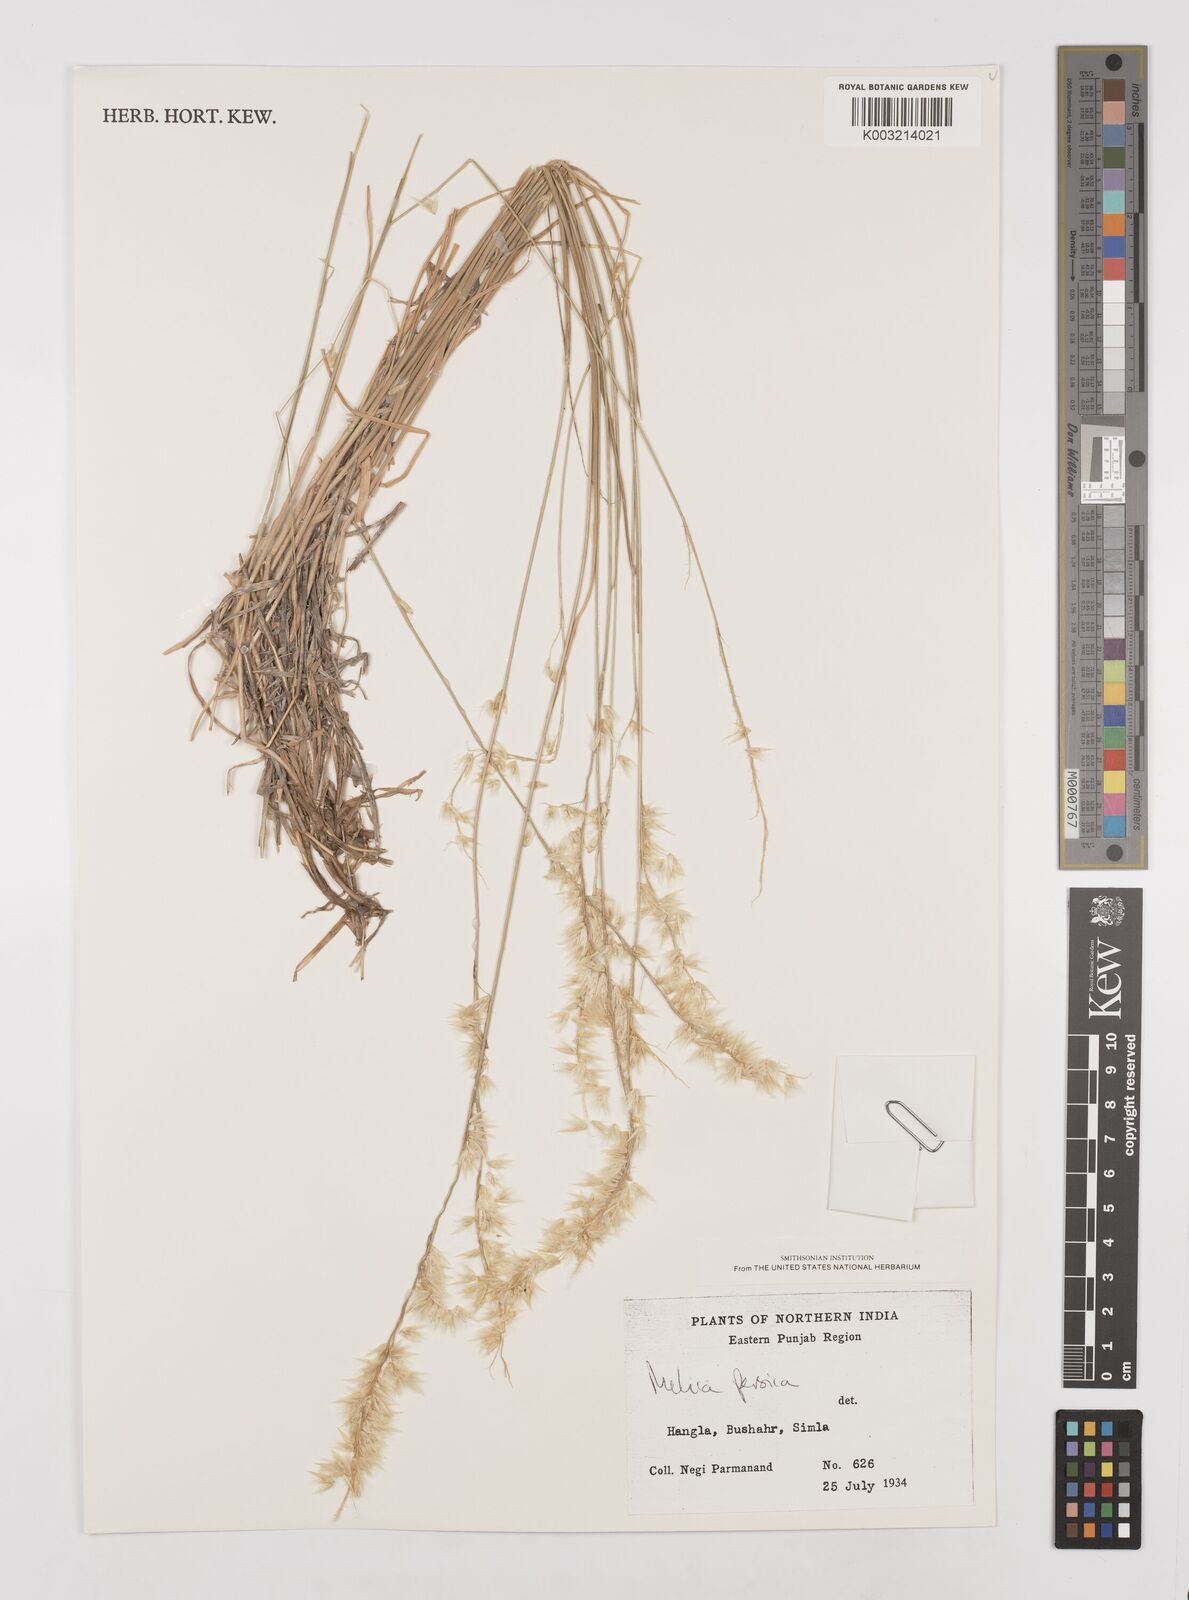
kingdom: Plantae
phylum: Tracheophyta
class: Liliopsida
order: Poales
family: Poaceae
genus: Melica
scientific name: Melica persica
